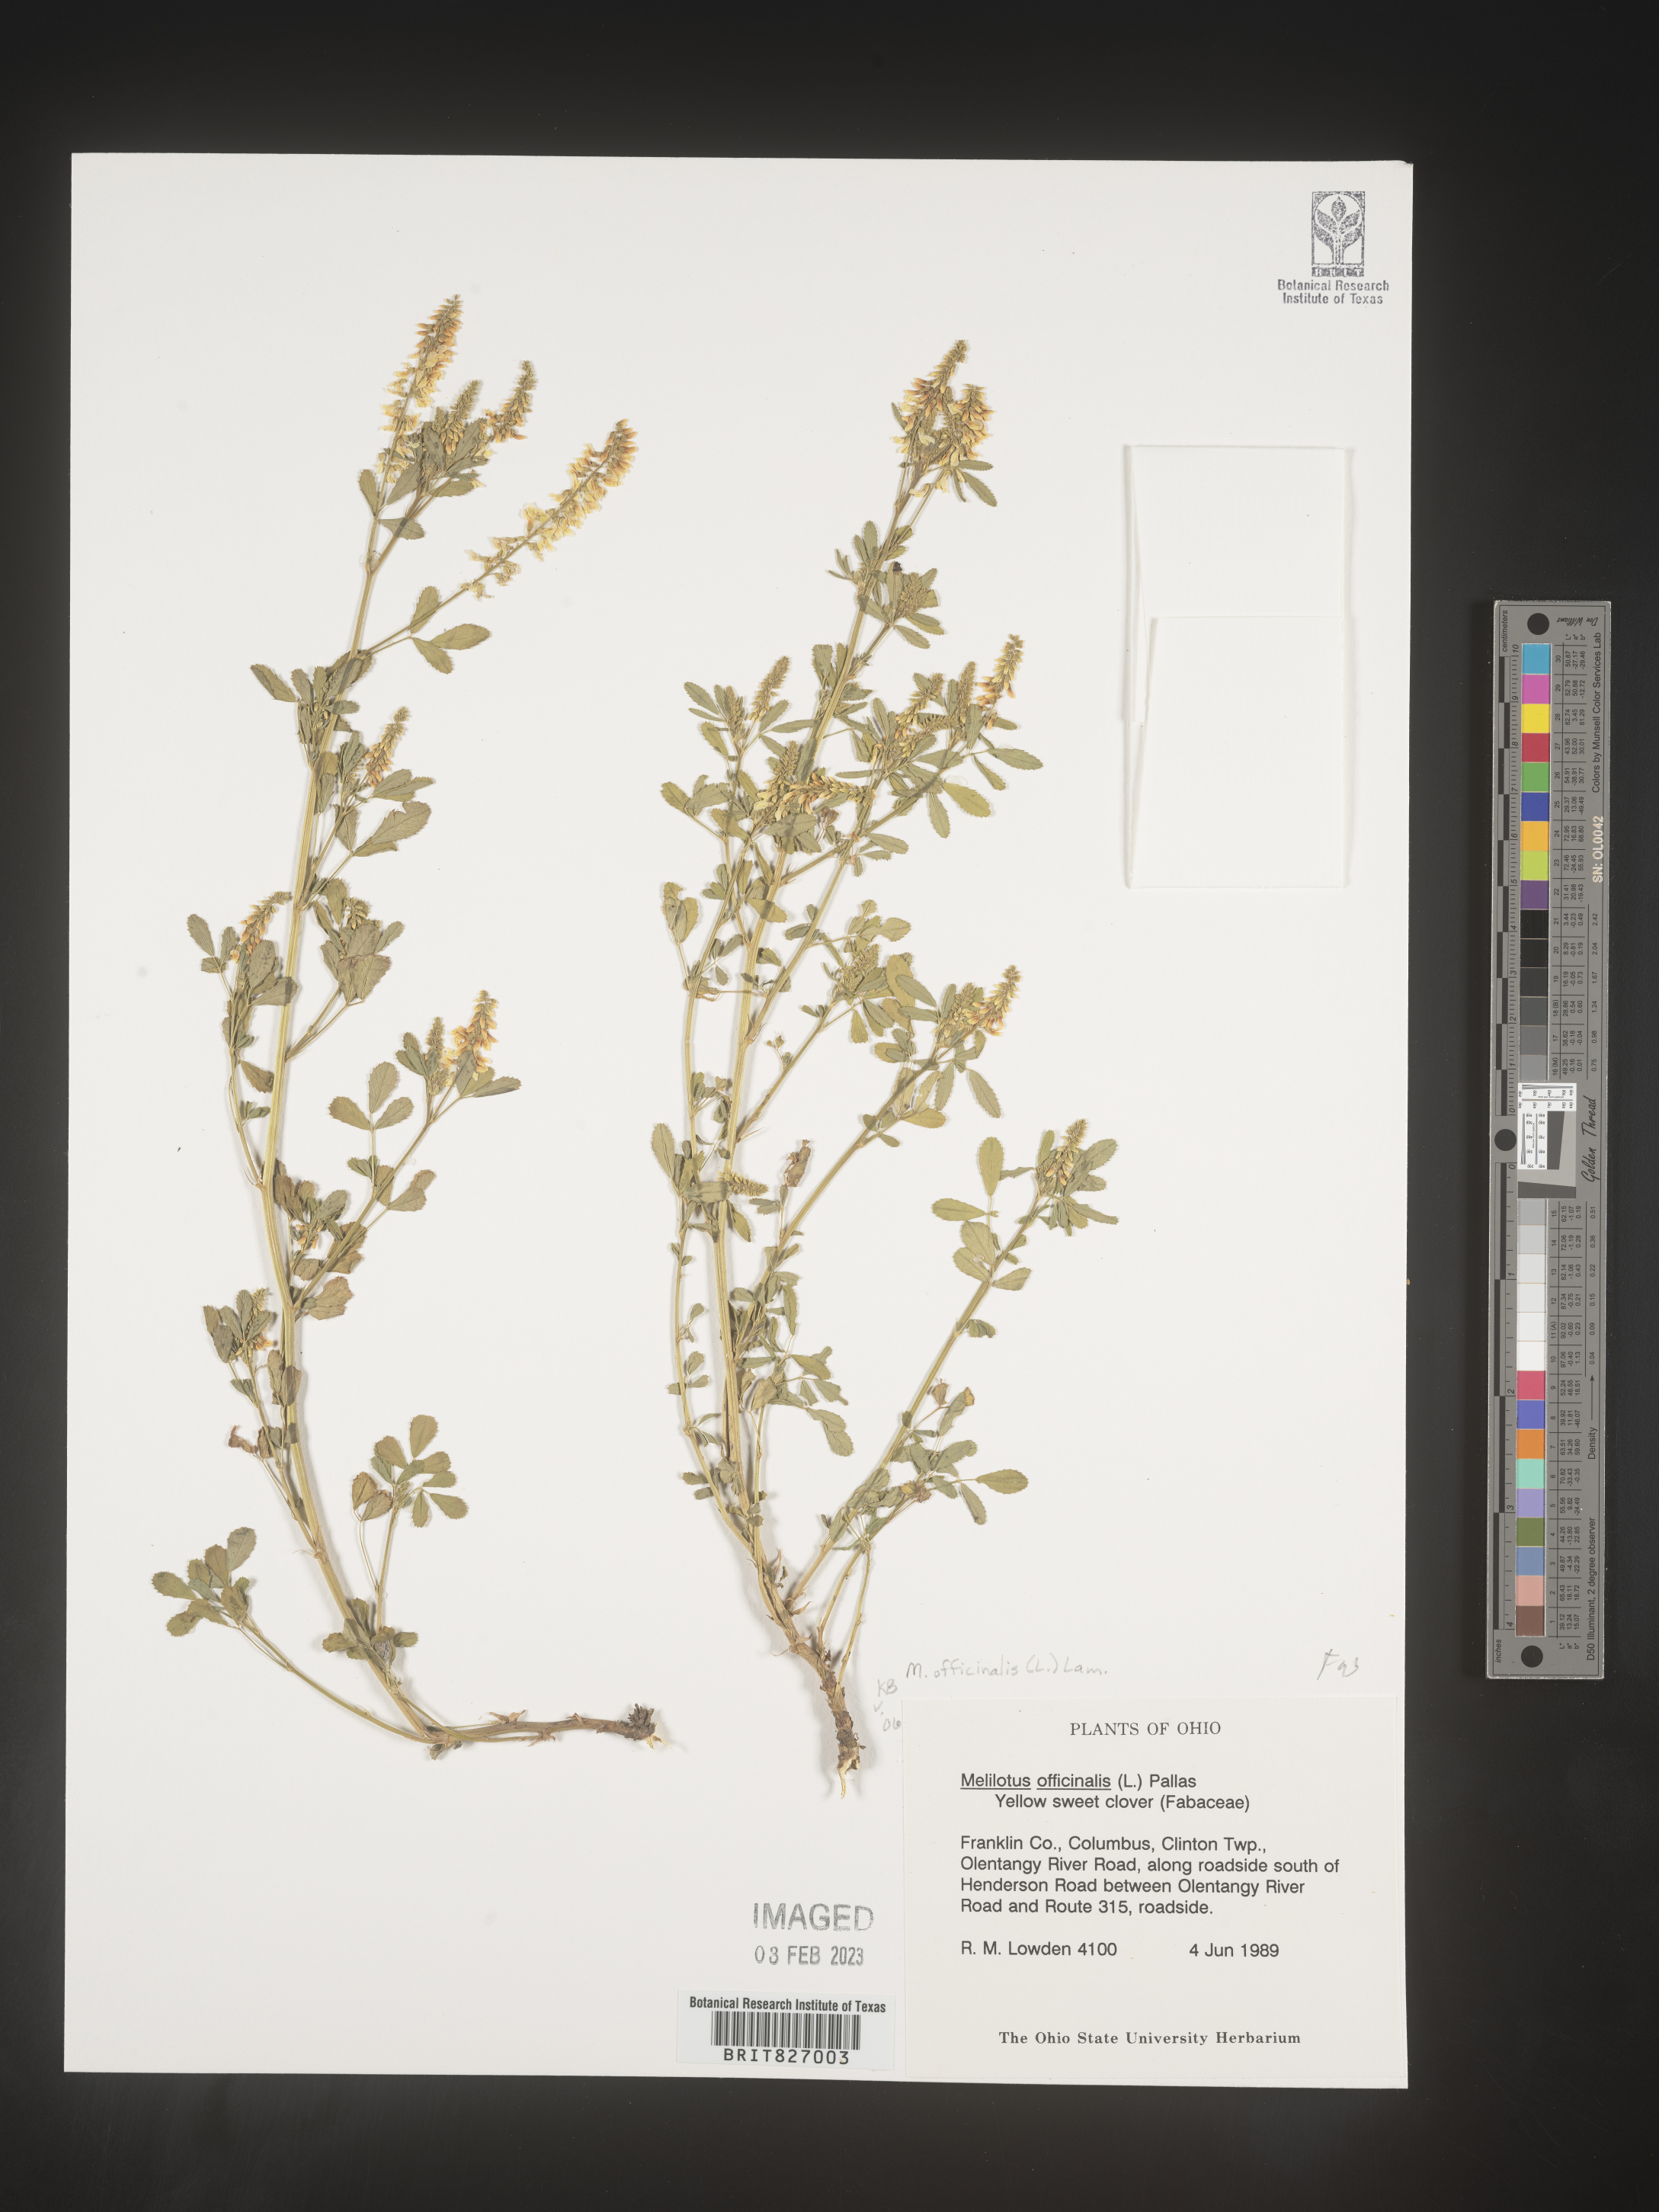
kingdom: Plantae
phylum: Tracheophyta
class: Magnoliopsida
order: Fabales
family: Fabaceae
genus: Melilotus
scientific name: Melilotus officinalis
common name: Sweetclover
